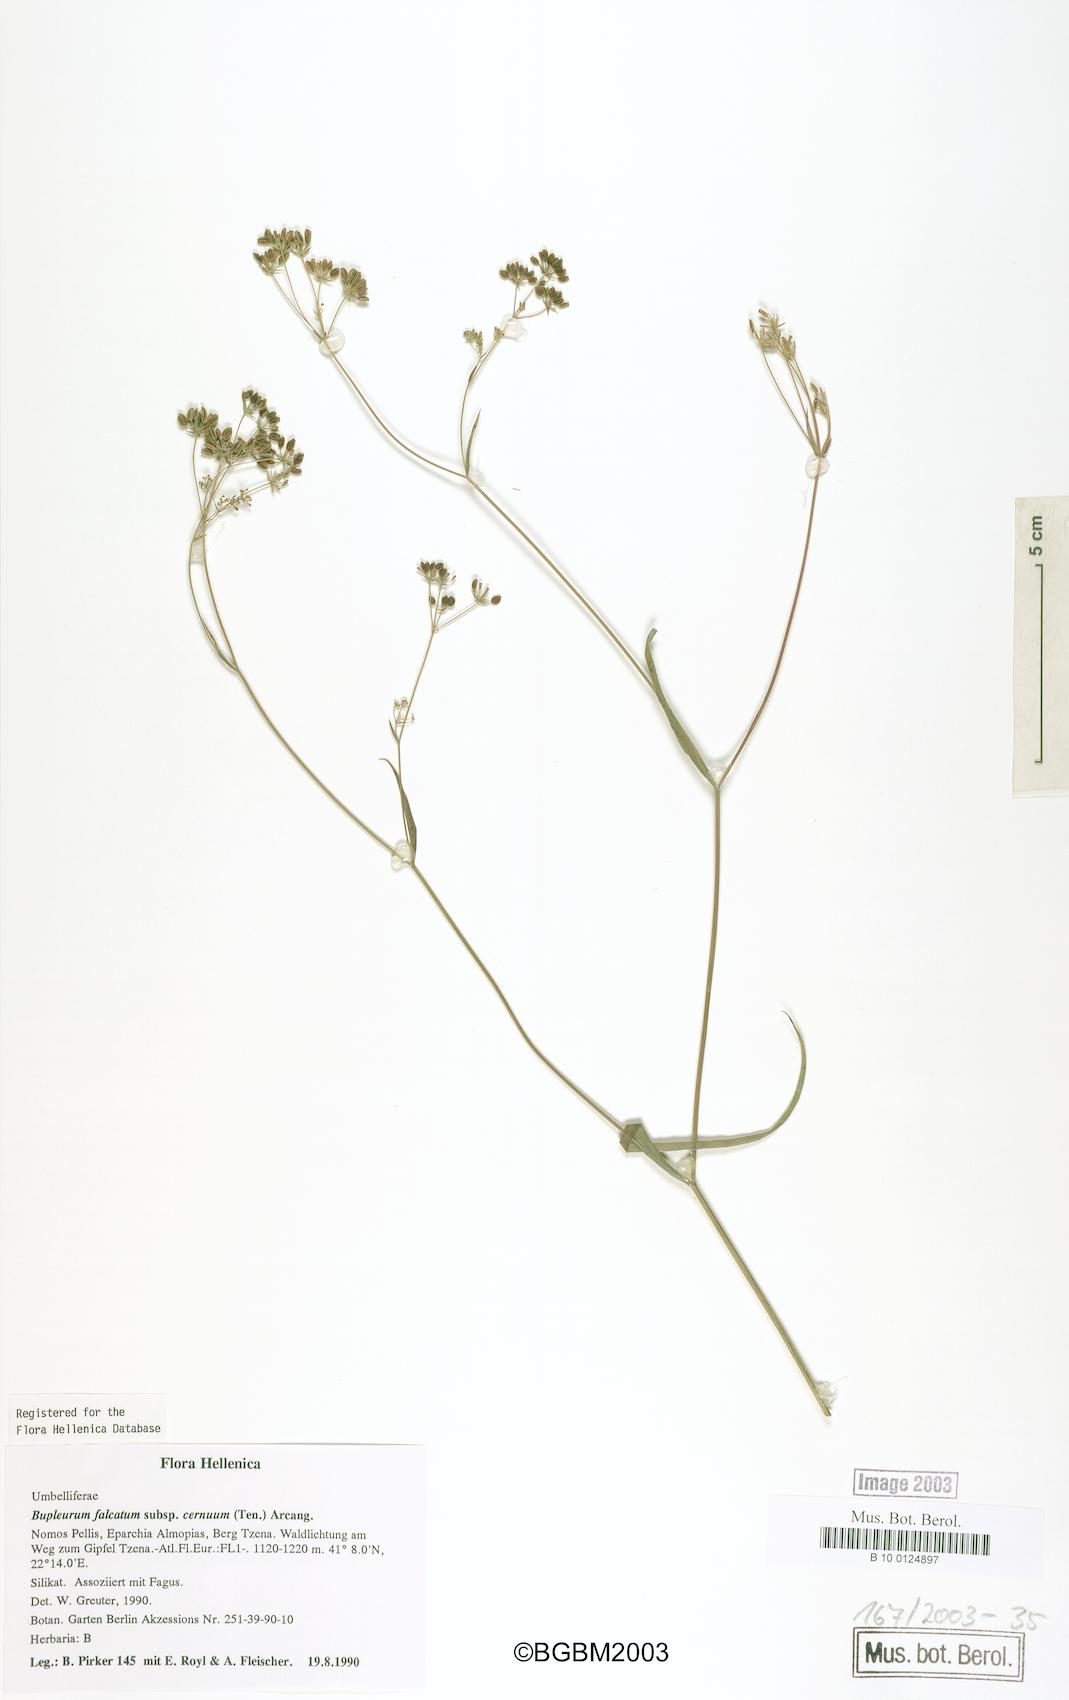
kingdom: Plantae
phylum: Tracheophyta
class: Magnoliopsida
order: Apiales
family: Apiaceae
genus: Bupleurum
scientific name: Bupleurum exaltatum
